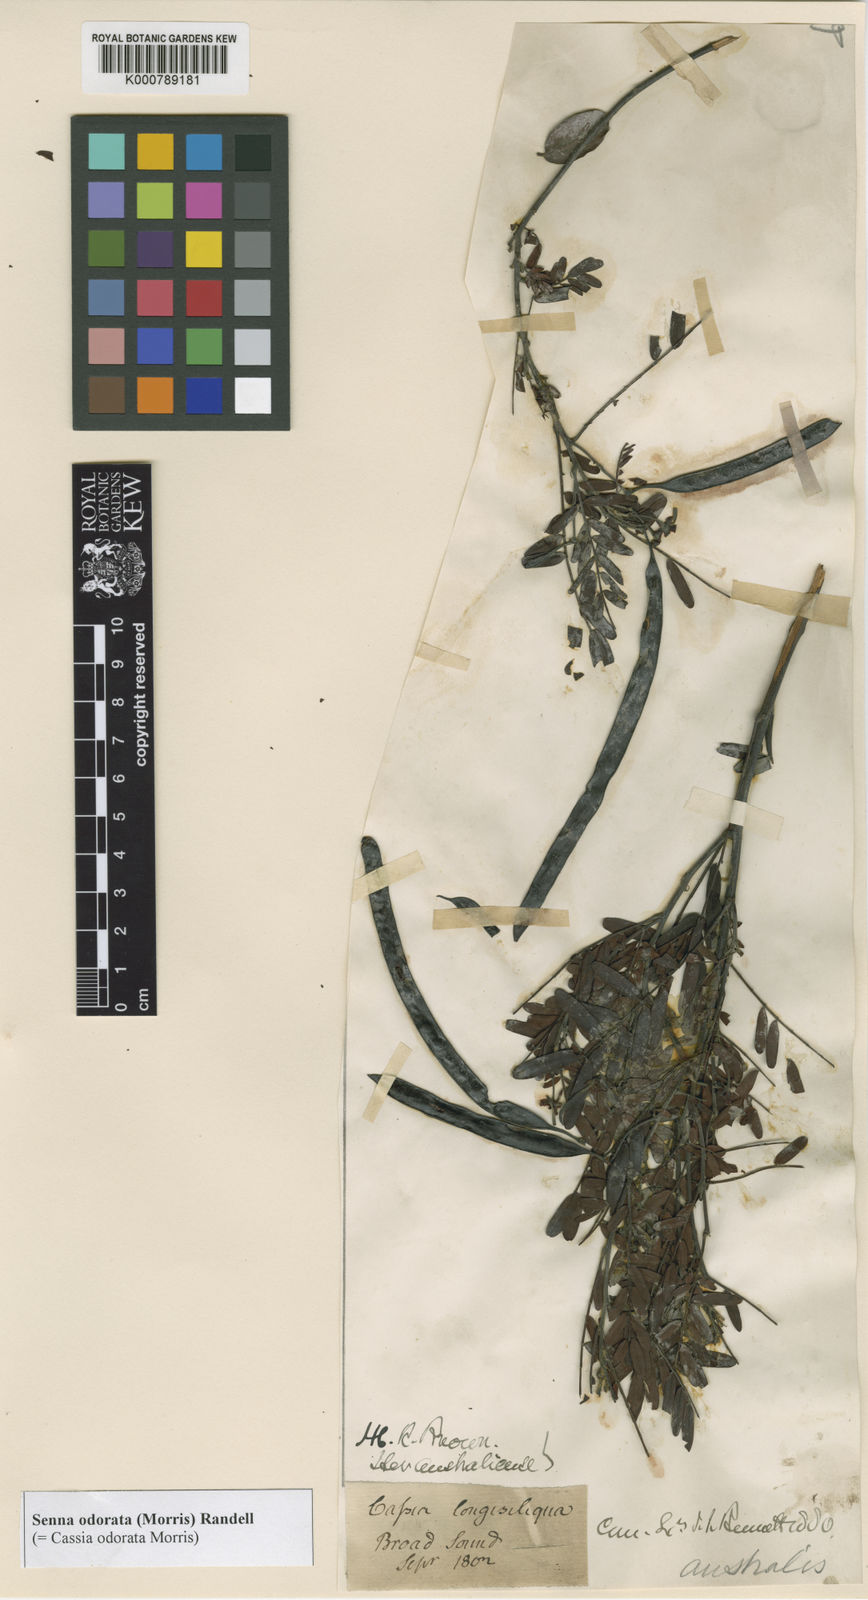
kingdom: Plantae
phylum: Tracheophyta
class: Magnoliopsida
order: Fabales
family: Fabaceae
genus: Senna
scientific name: Senna barronfieldii
